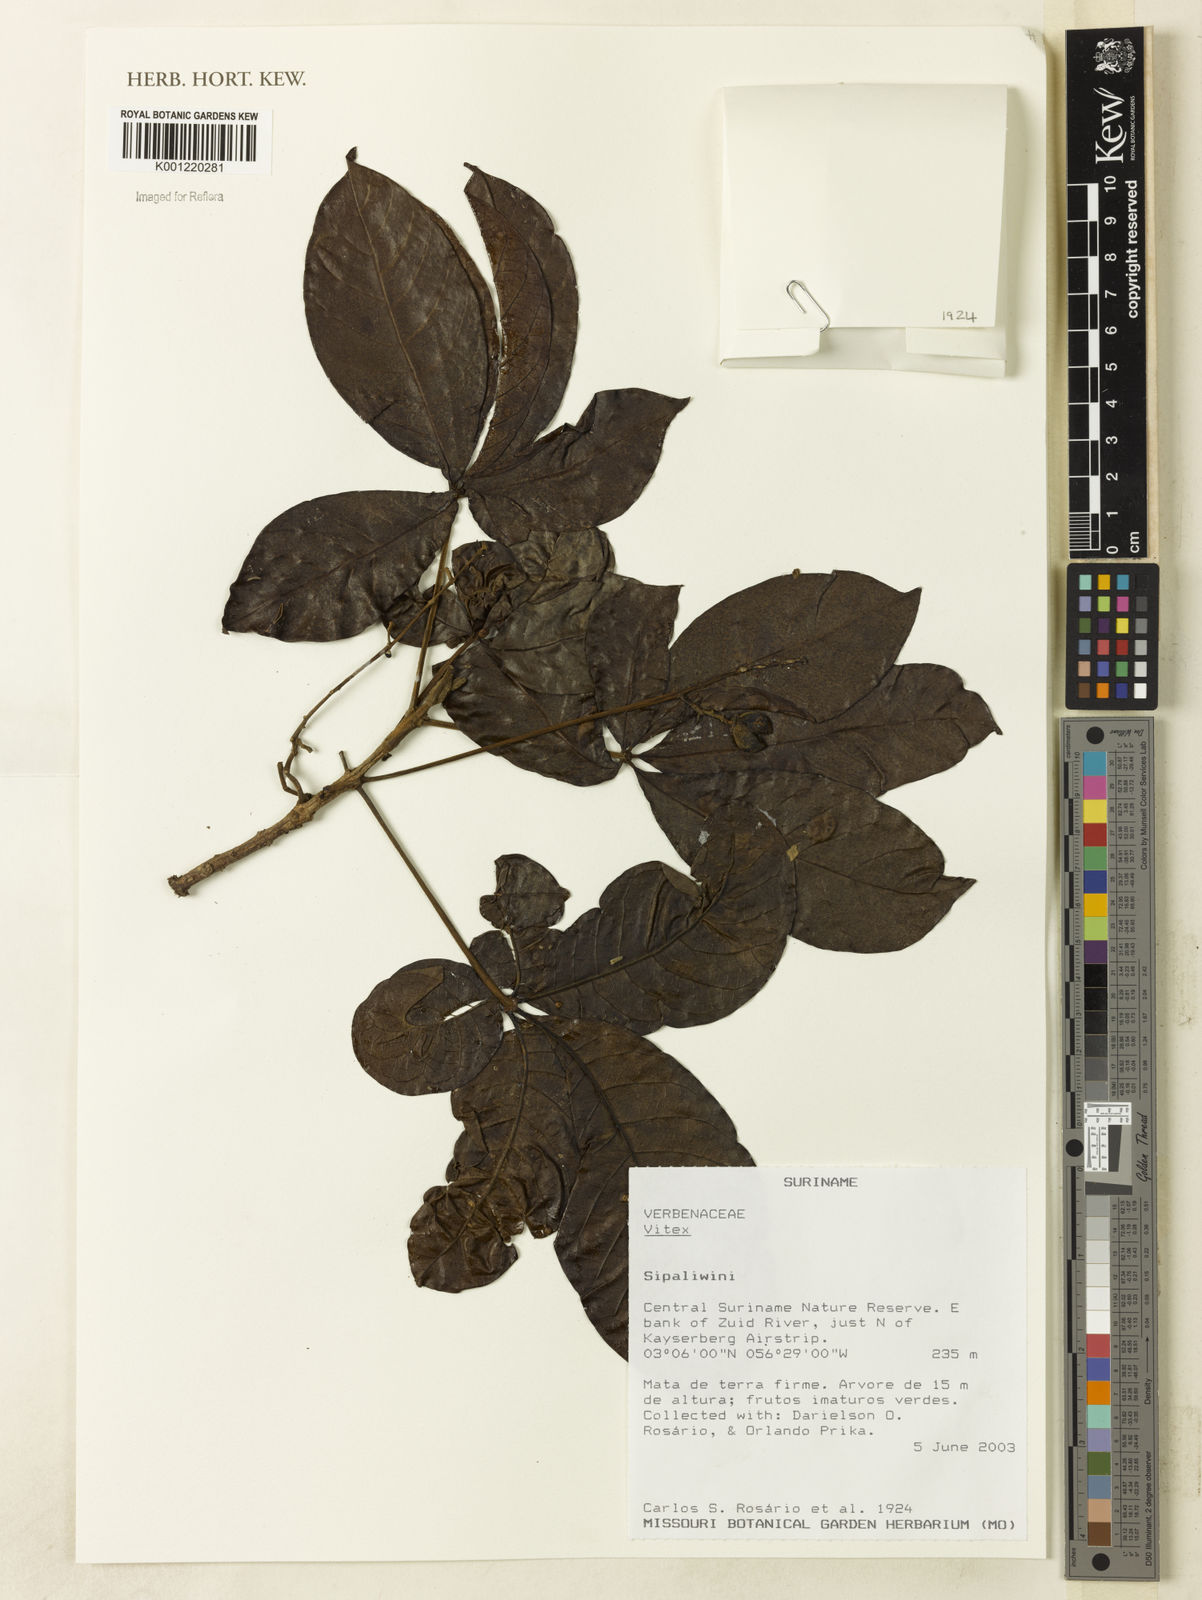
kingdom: Plantae
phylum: Tracheophyta
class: Magnoliopsida
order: Lamiales
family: Lamiaceae
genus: Vitex
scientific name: Vitex
